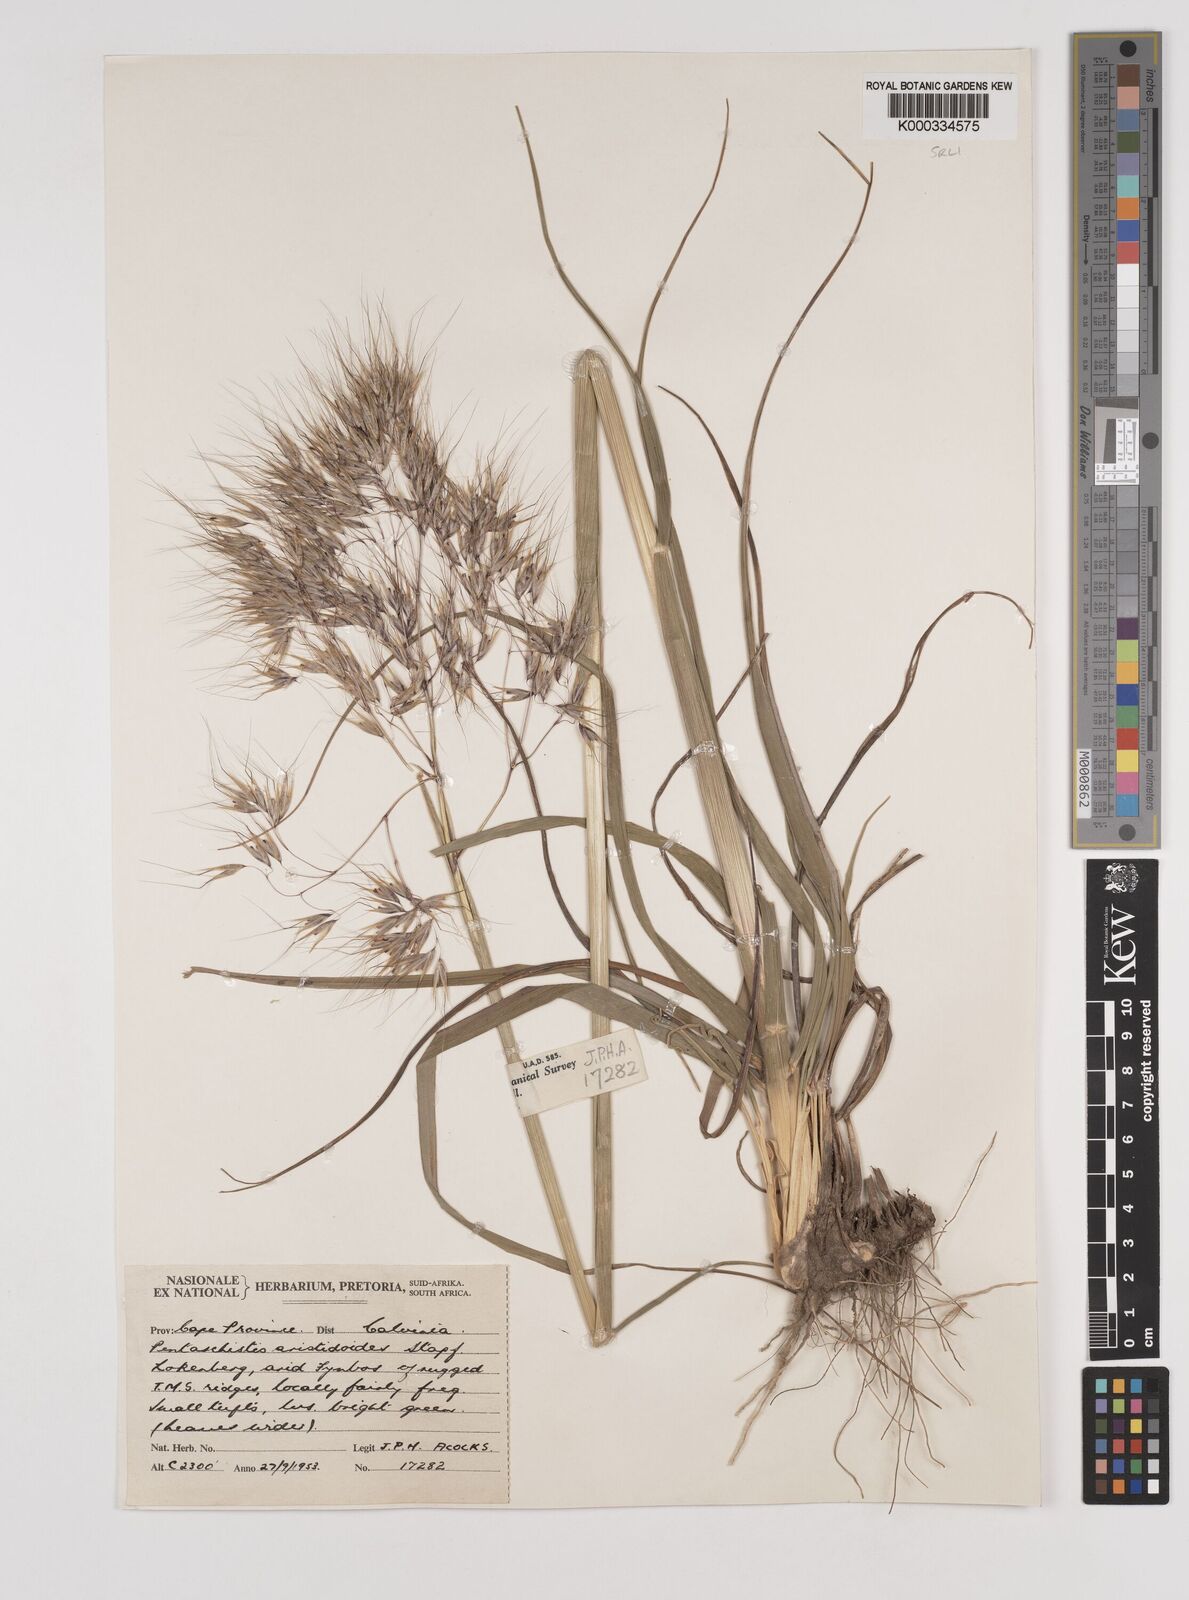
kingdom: Plantae
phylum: Tracheophyta
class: Liliopsida
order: Poales
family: Poaceae
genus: Pentameris
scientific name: Pentameris aristidoides
